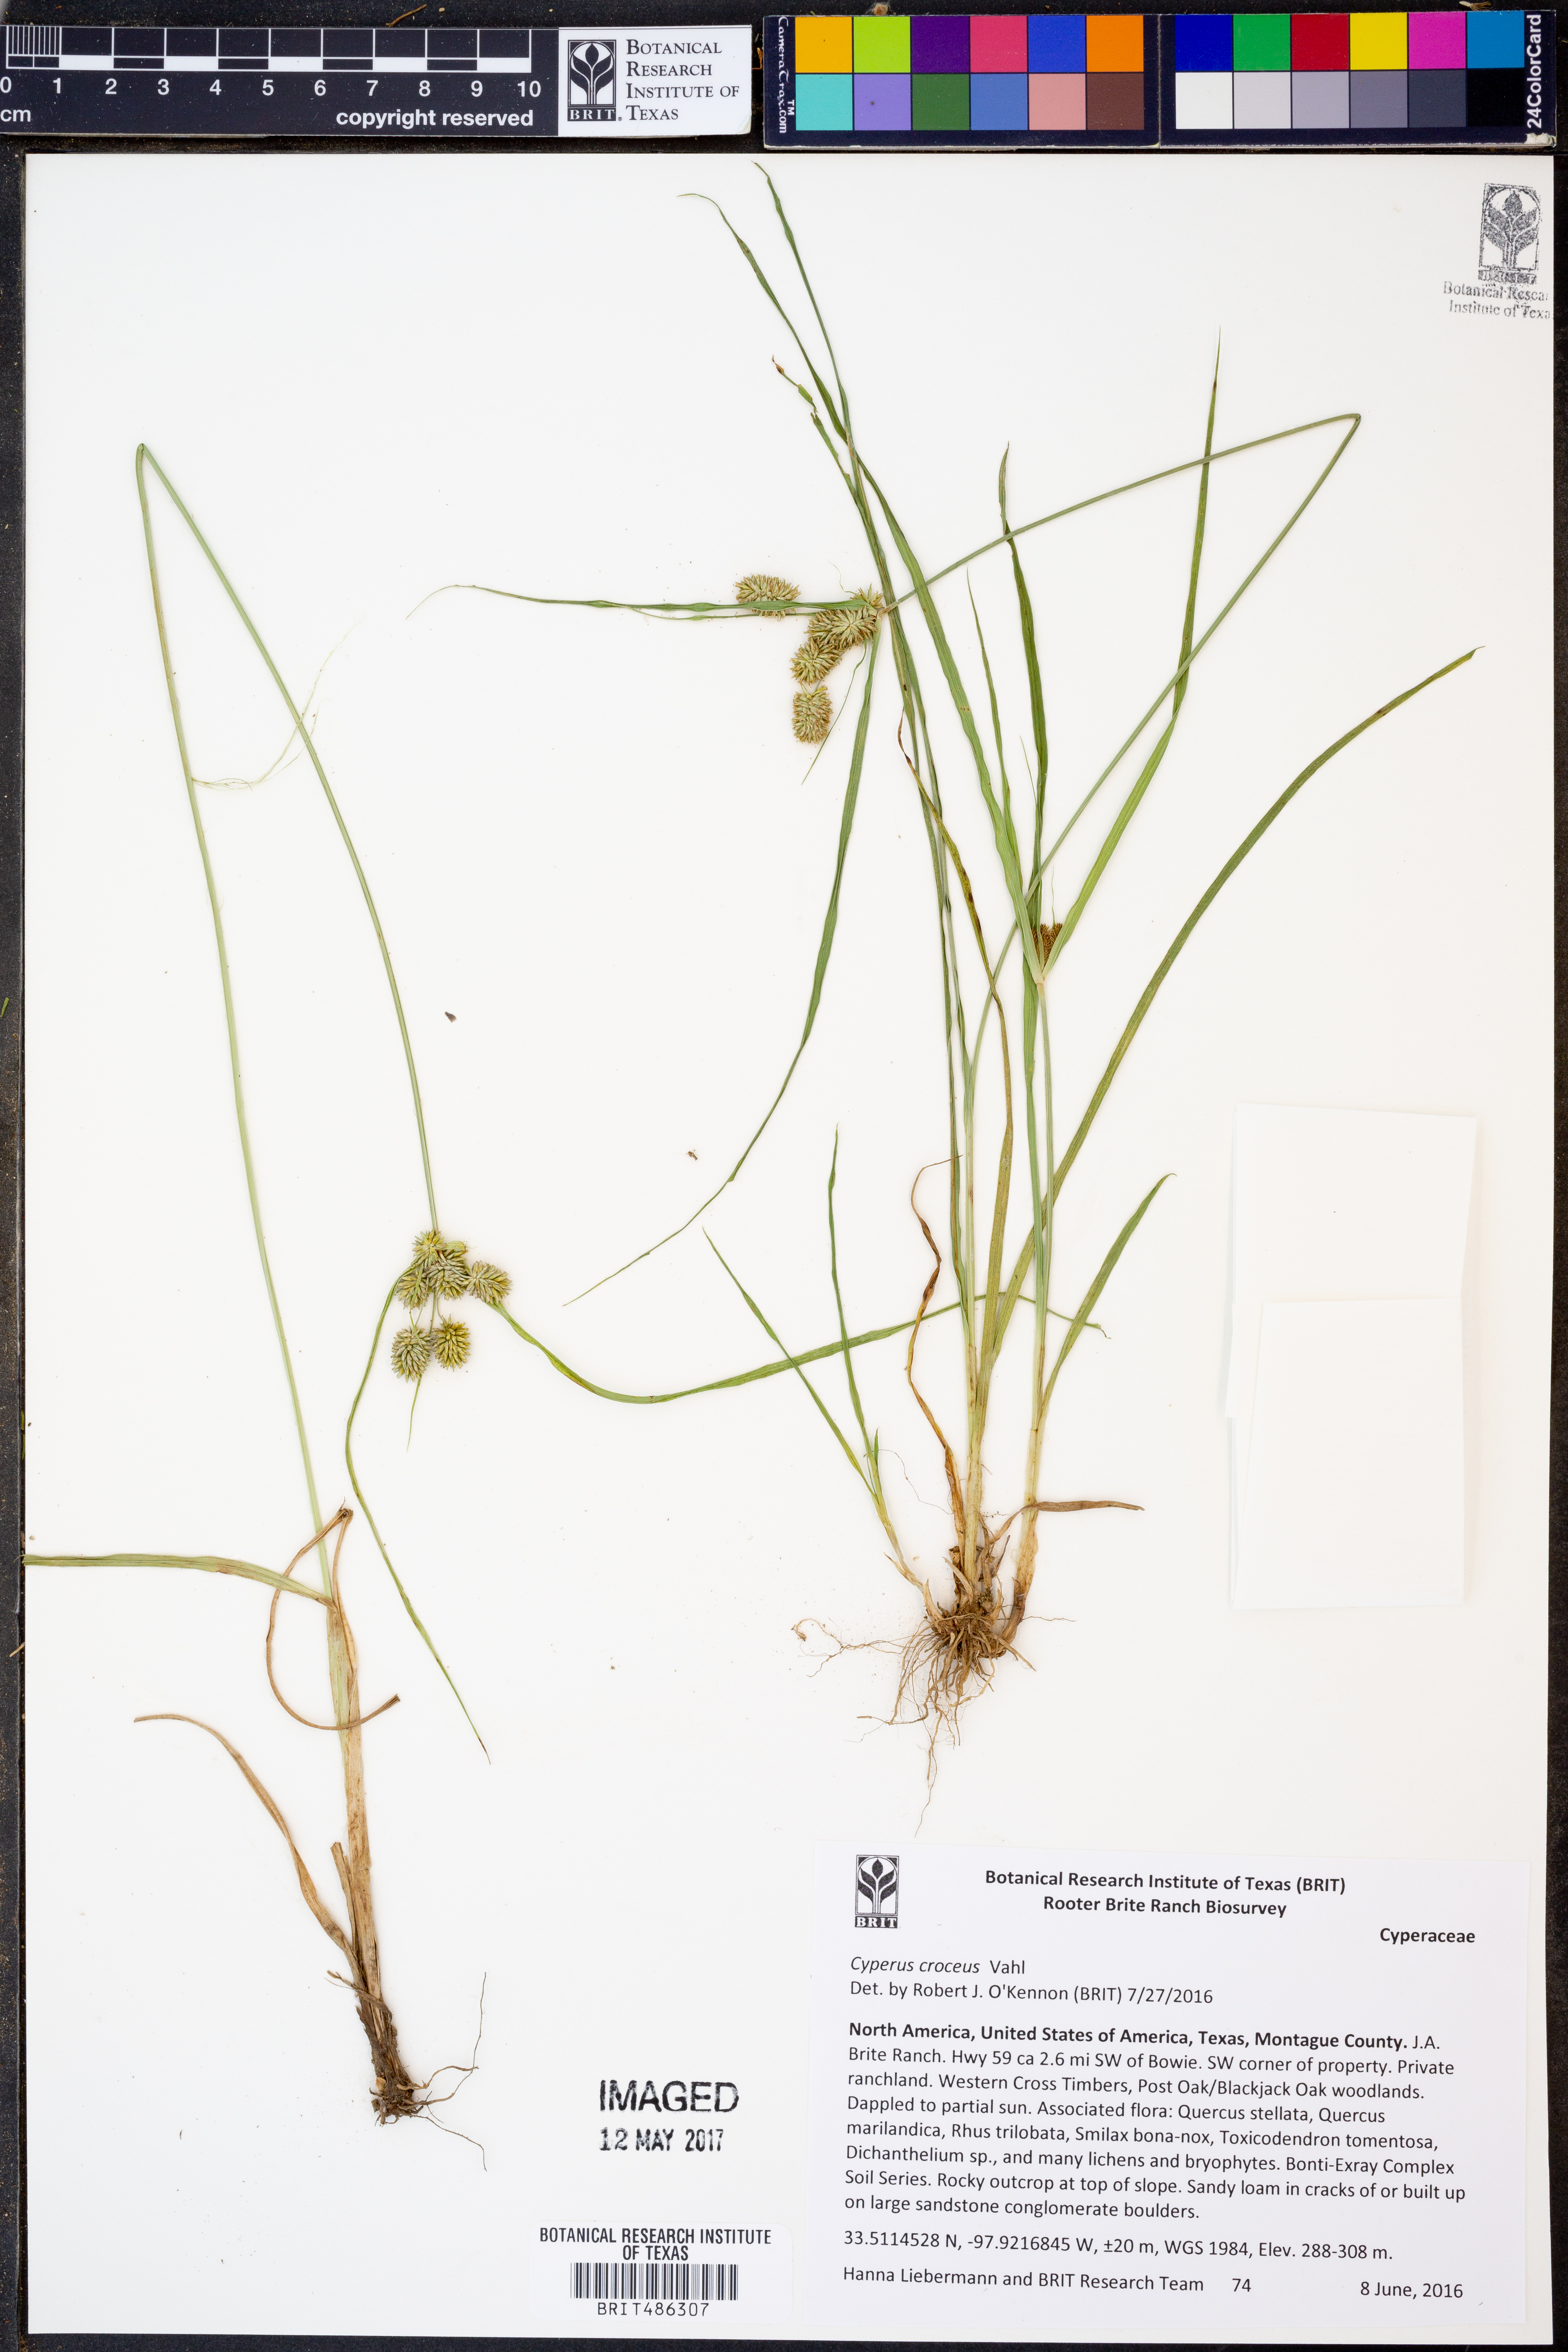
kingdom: Plantae
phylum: Tracheophyta
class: Liliopsida
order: Poales
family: Cyperaceae
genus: Cyperus
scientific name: Cyperus croceus
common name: Baldwin's flatsedge
